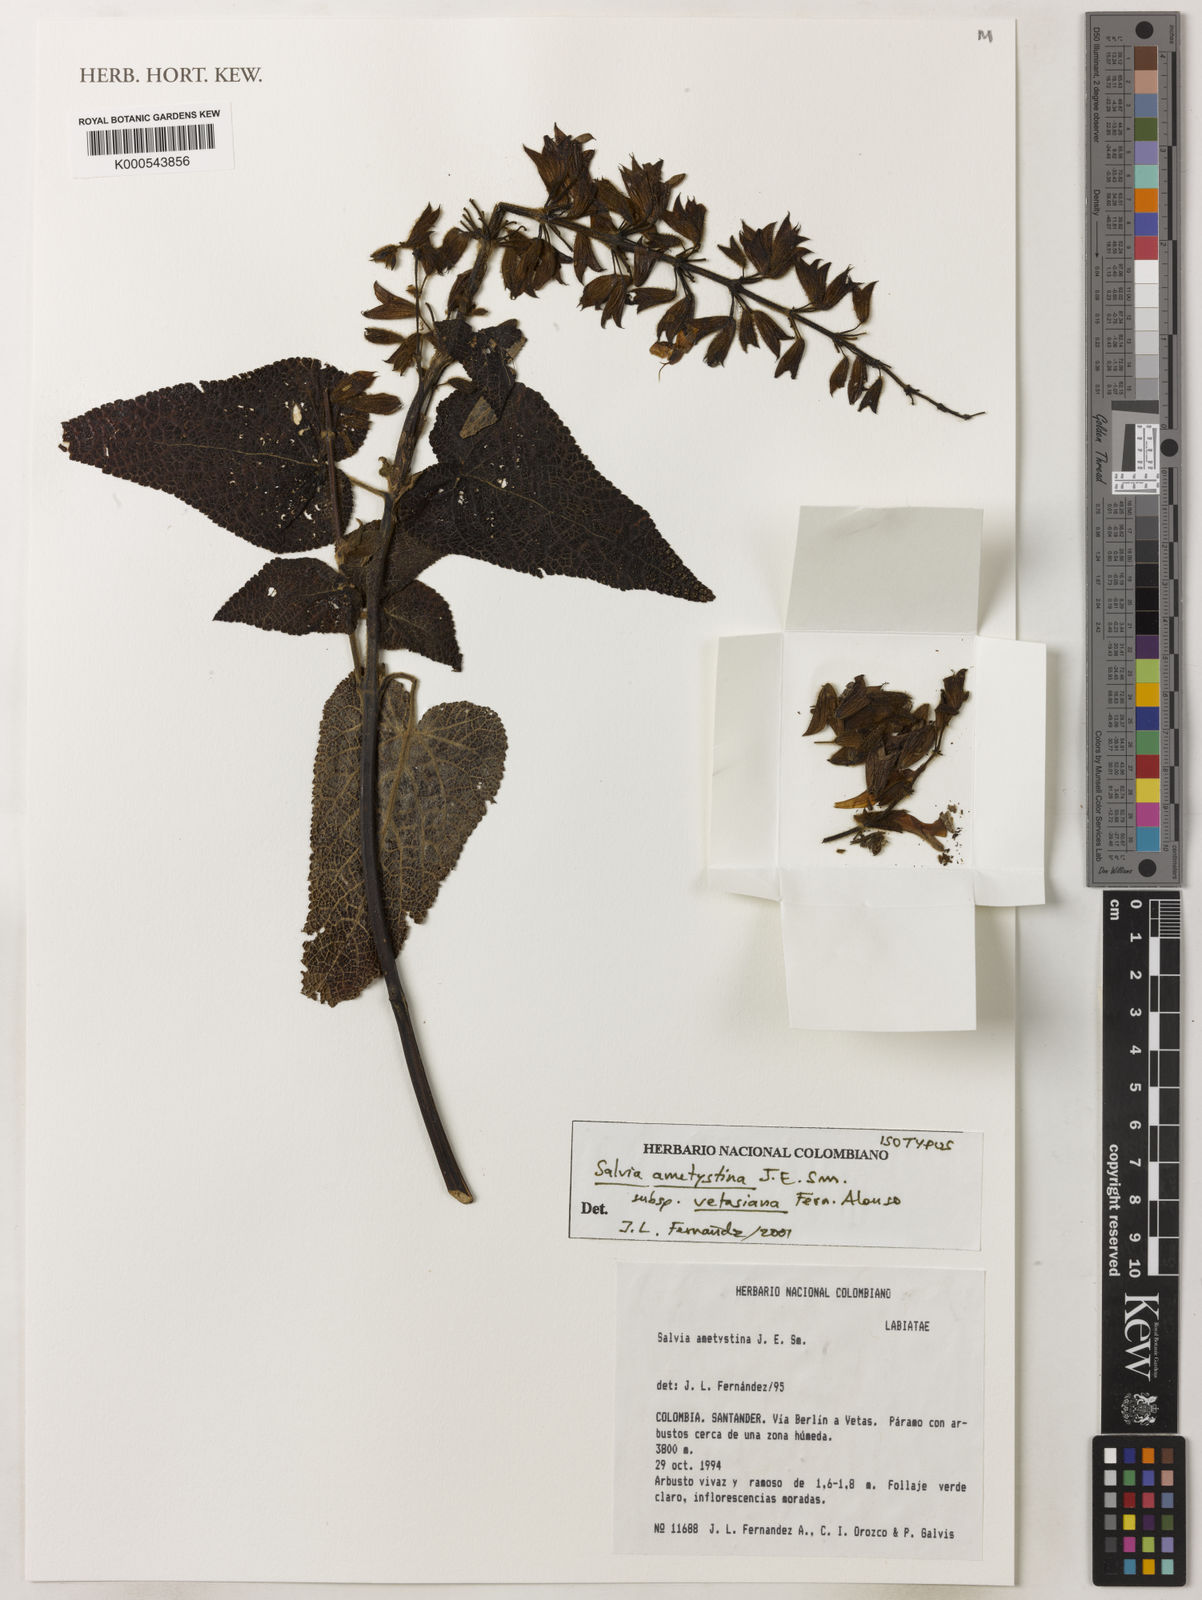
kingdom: Plantae
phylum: Tracheophyta
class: Magnoliopsida
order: Lamiales
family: Lamiaceae
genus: Salvia
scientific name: Salvia amethystina
